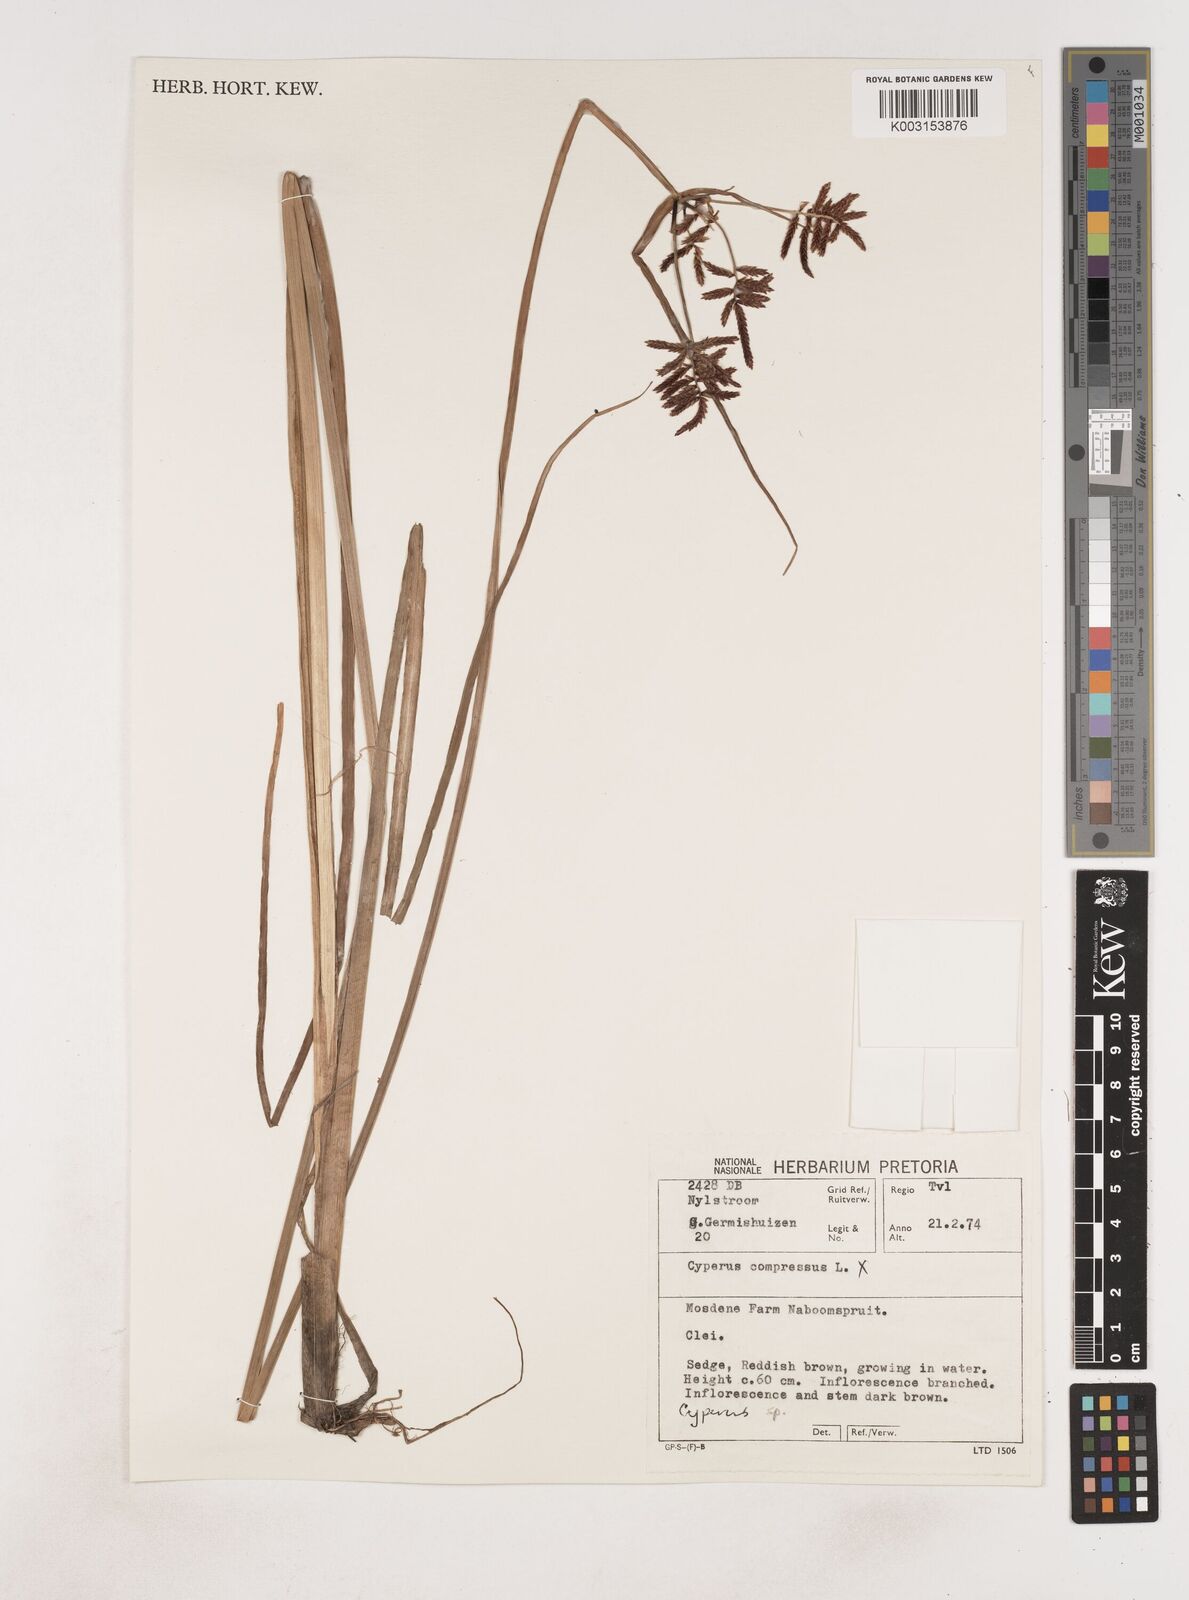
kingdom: Plantae
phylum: Tracheophyta
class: Liliopsida
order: Poales
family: Cyperaceae
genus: Cyperus
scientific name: Cyperus
